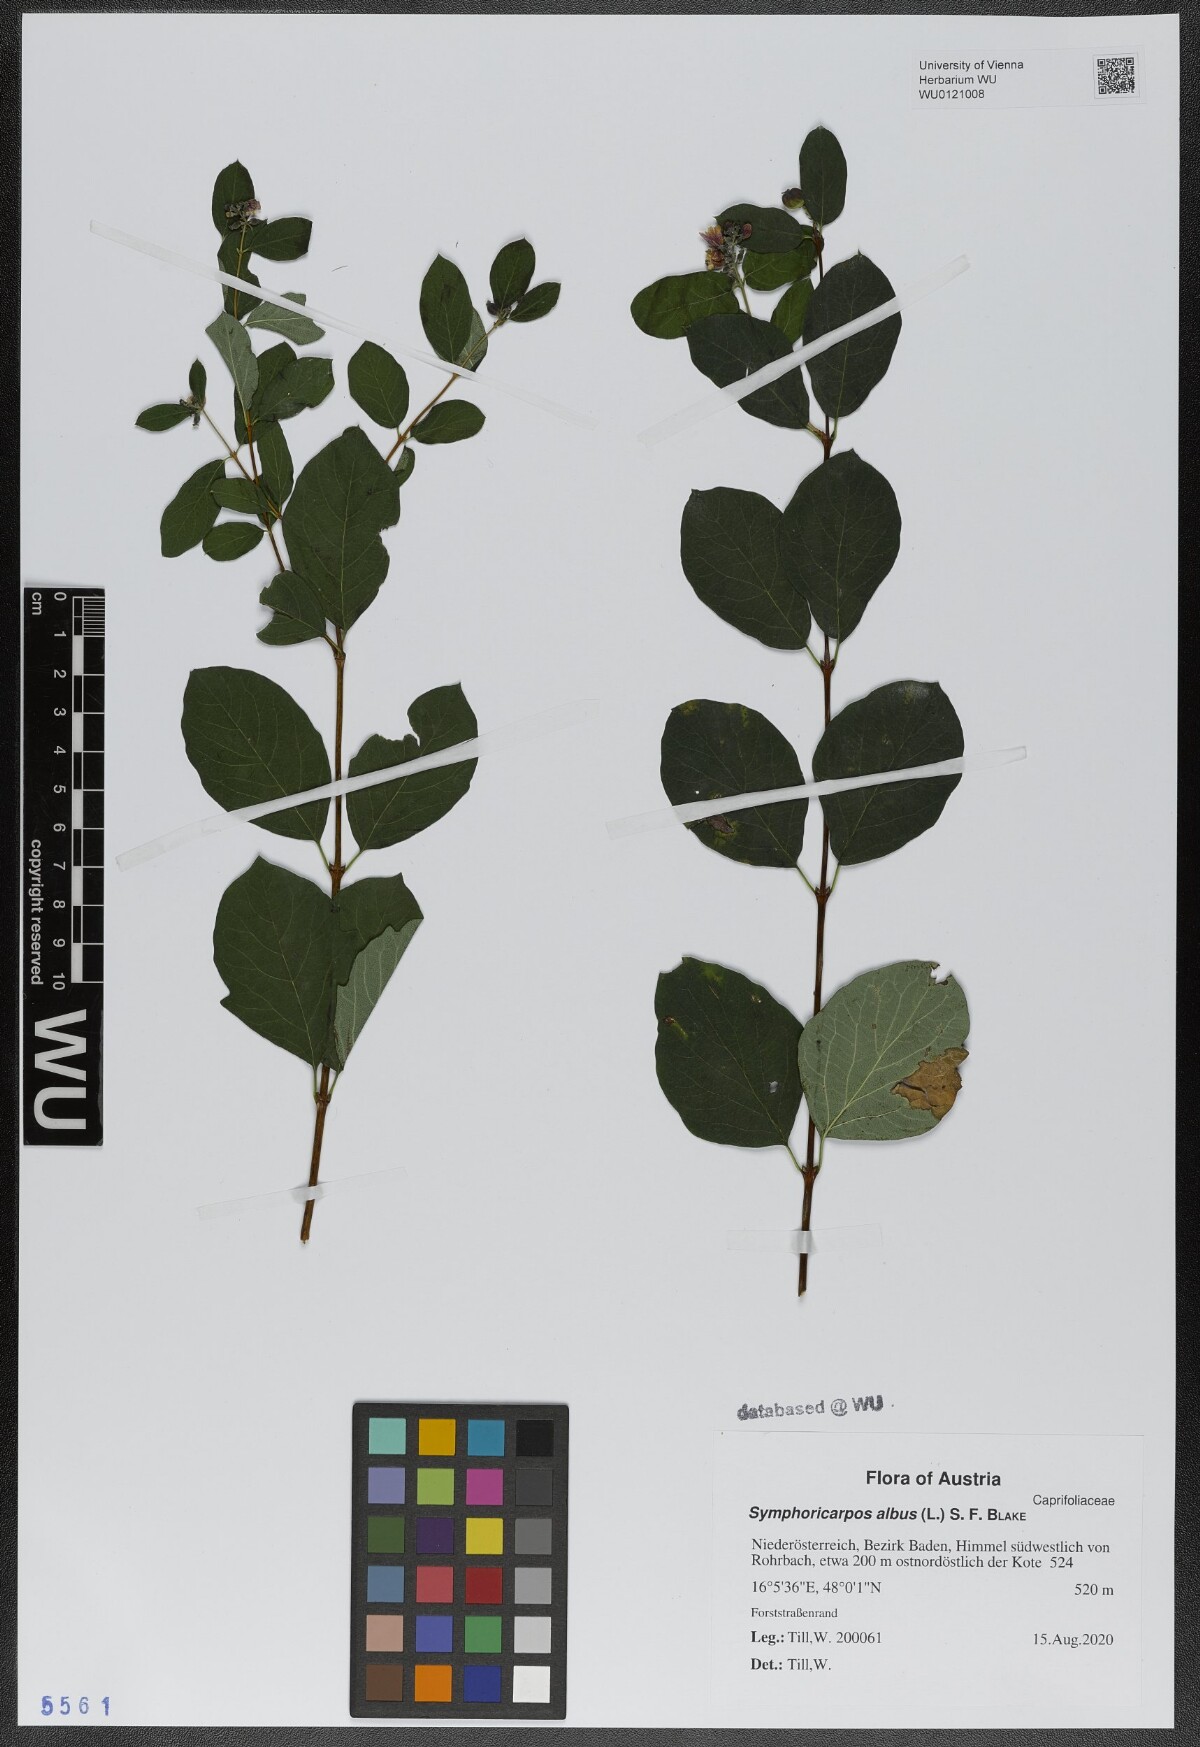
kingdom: Plantae
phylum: Tracheophyta
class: Magnoliopsida
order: Dipsacales
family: Caprifoliaceae
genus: Symphoricarpos
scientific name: Symphoricarpos albus
